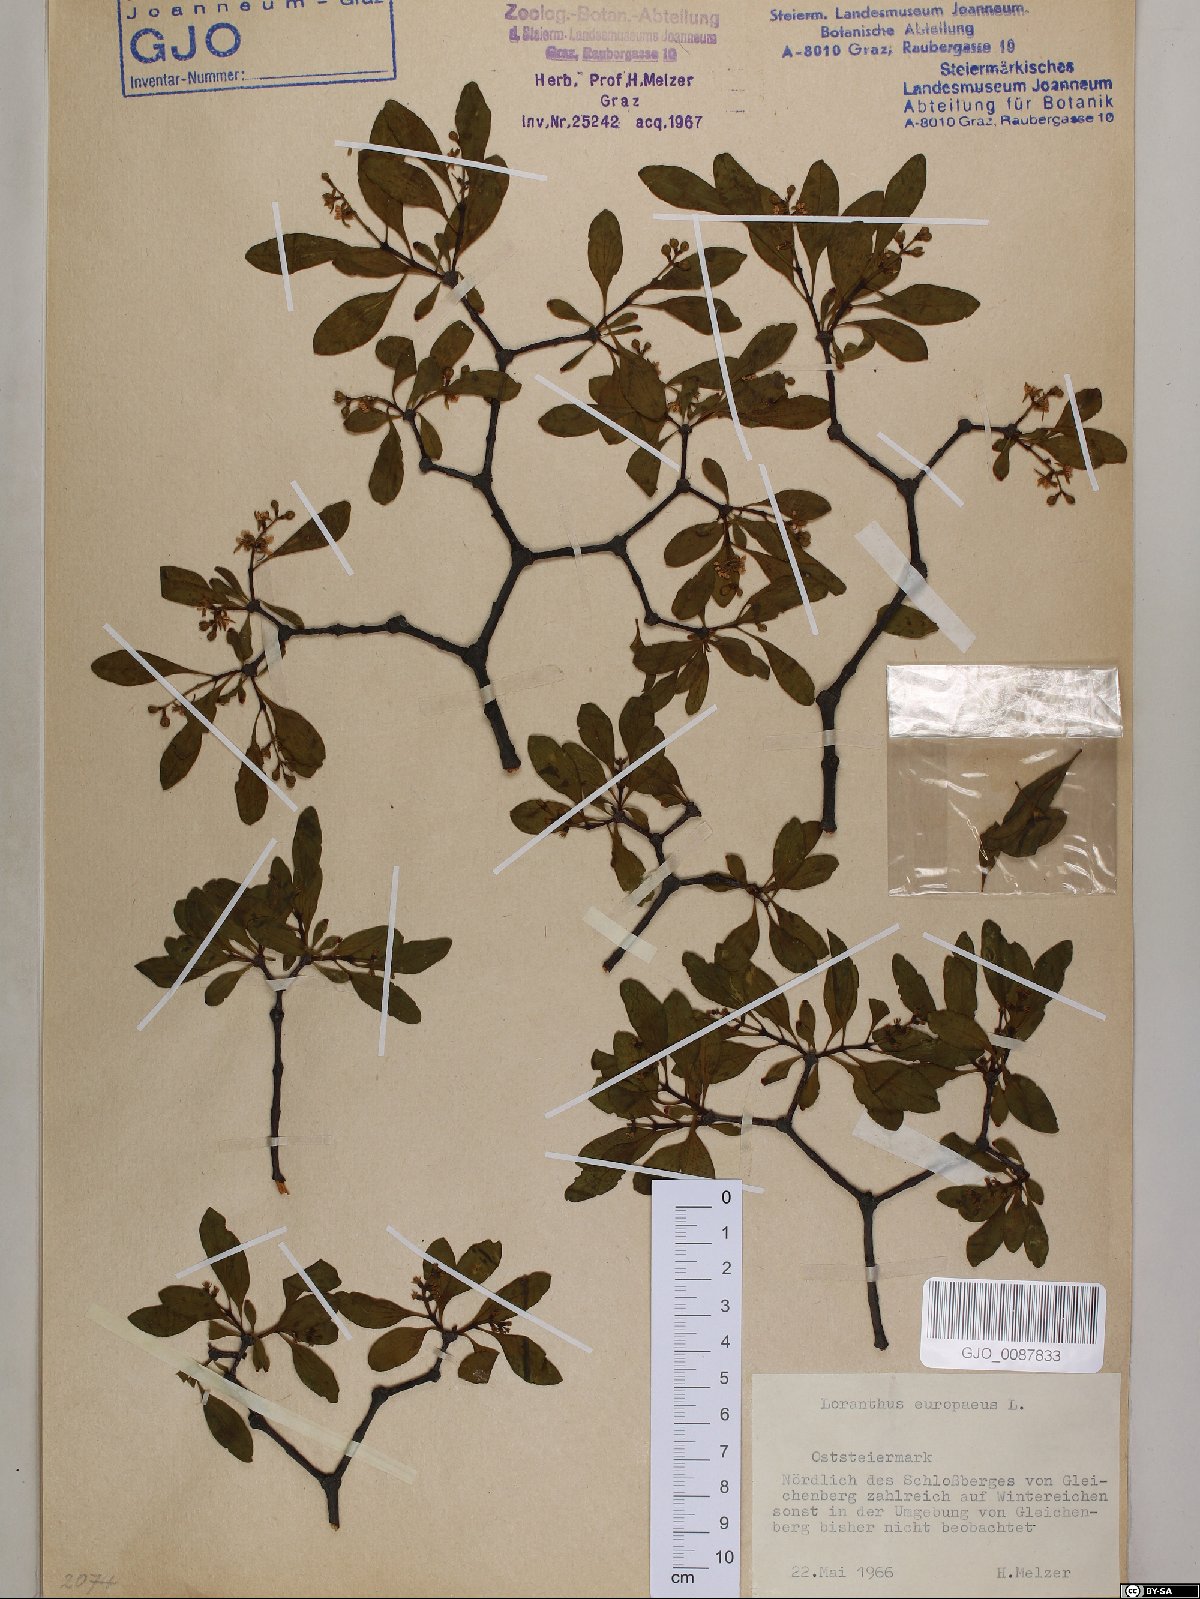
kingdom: Plantae
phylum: Tracheophyta
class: Magnoliopsida
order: Santalales
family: Loranthaceae
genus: Loranthus
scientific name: Loranthus europaeus
